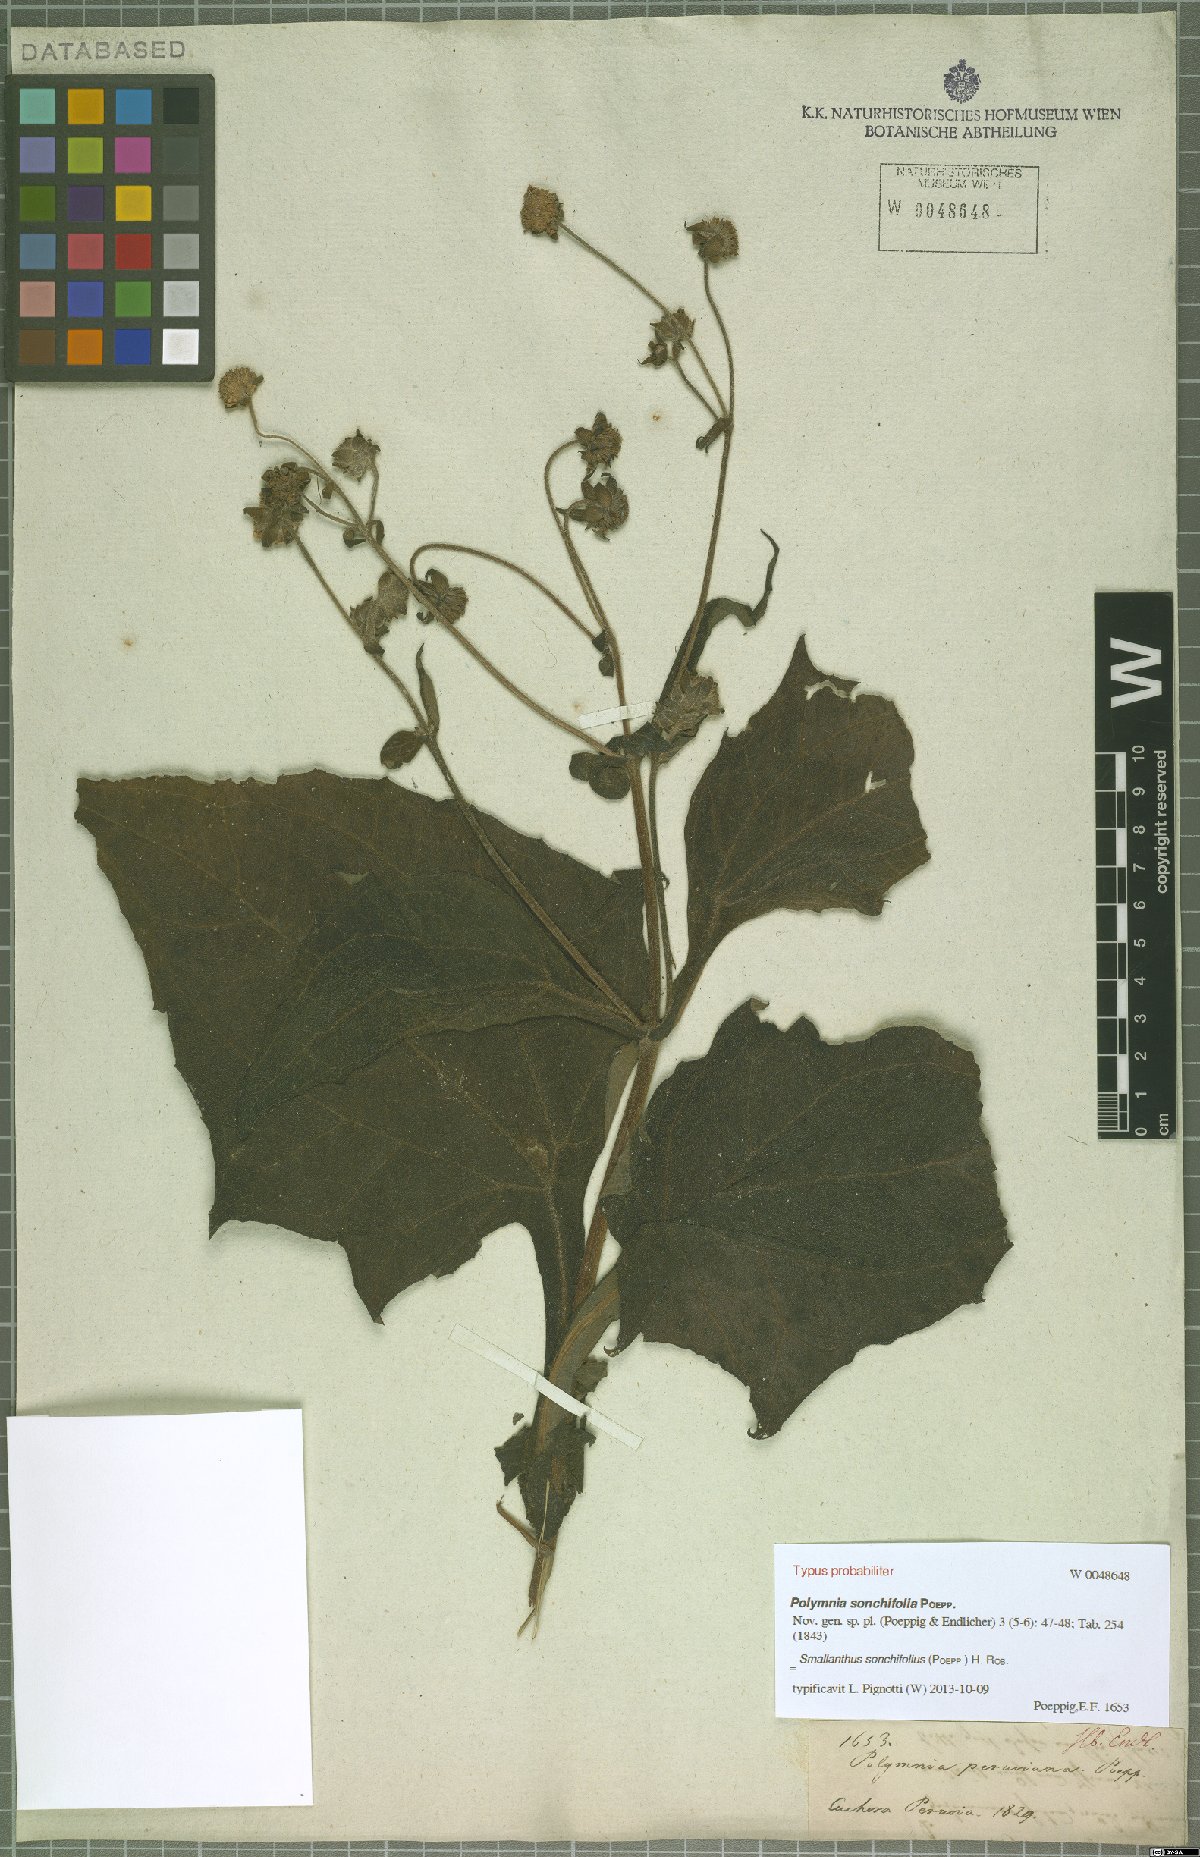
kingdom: Plantae
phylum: Tracheophyta
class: Magnoliopsida
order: Asterales
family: Asteraceae
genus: Smallanthus
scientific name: Smallanthus sonchifolius
